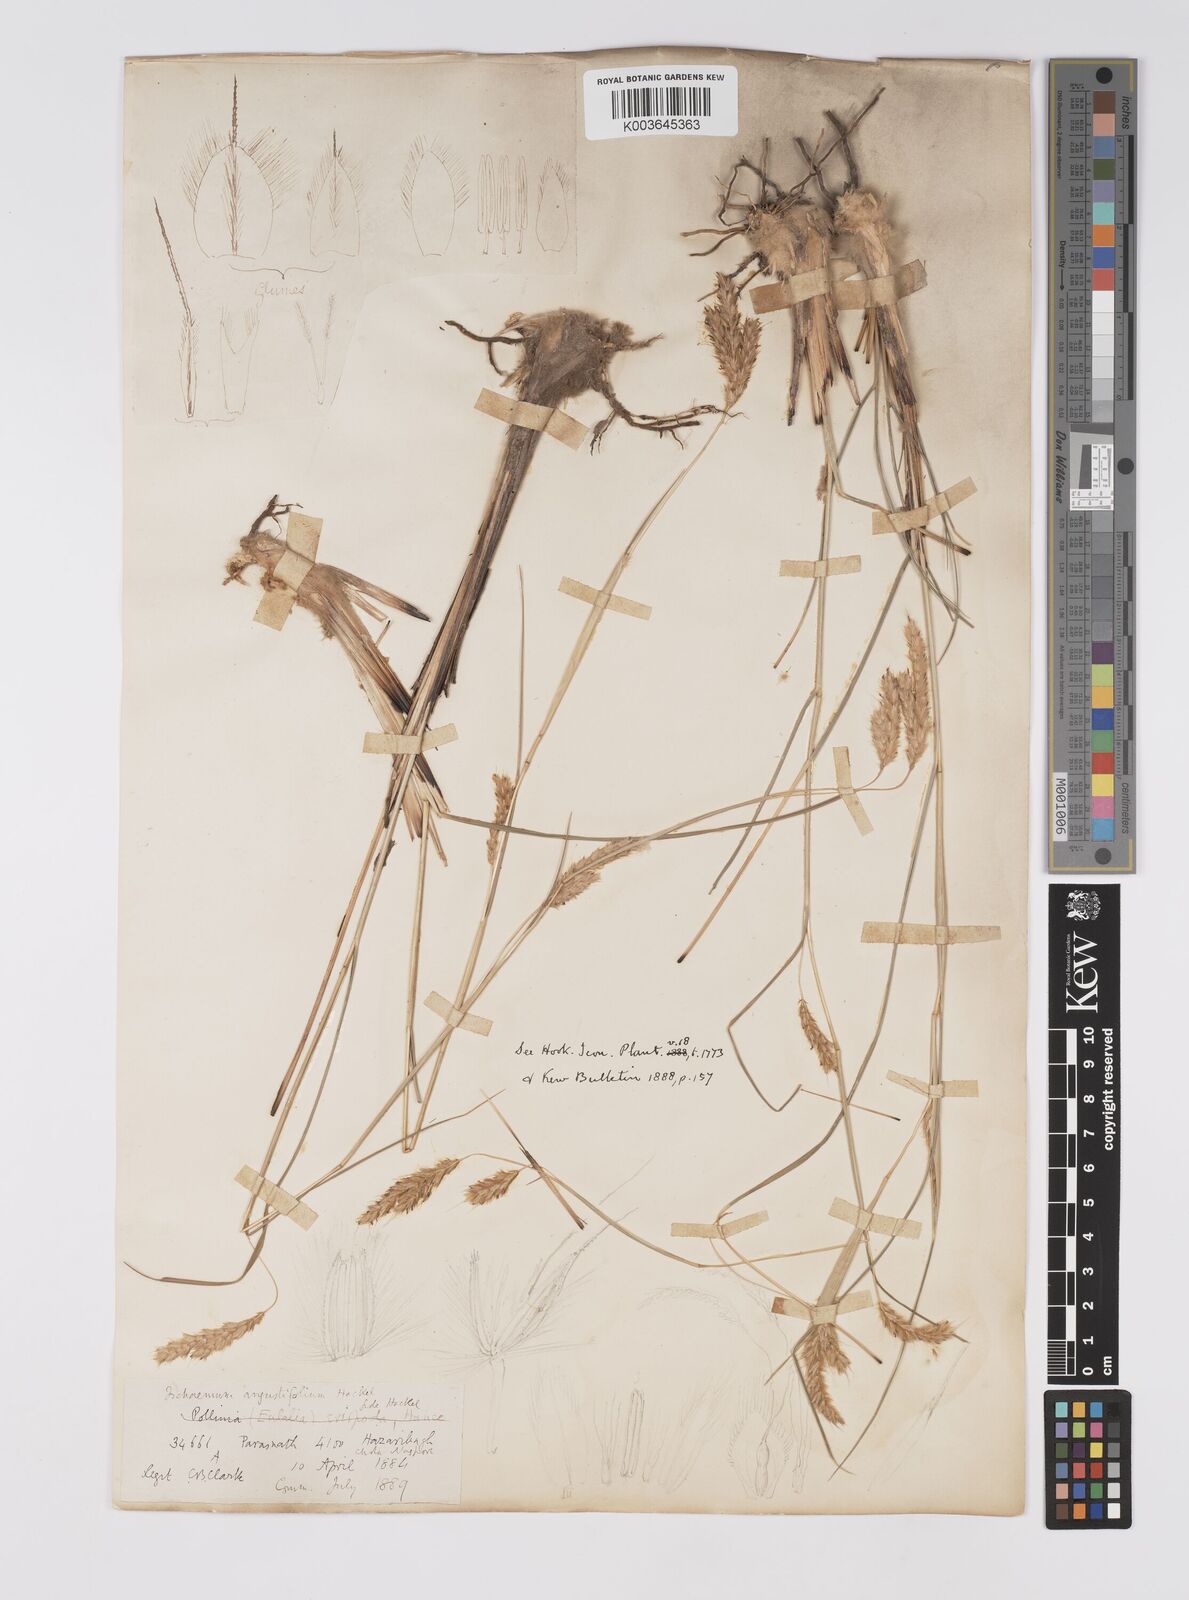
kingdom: Plantae
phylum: Tracheophyta
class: Liliopsida
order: Poales
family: Poaceae
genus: Eulaliopsis
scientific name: Eulaliopsis binata
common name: Baib grass
